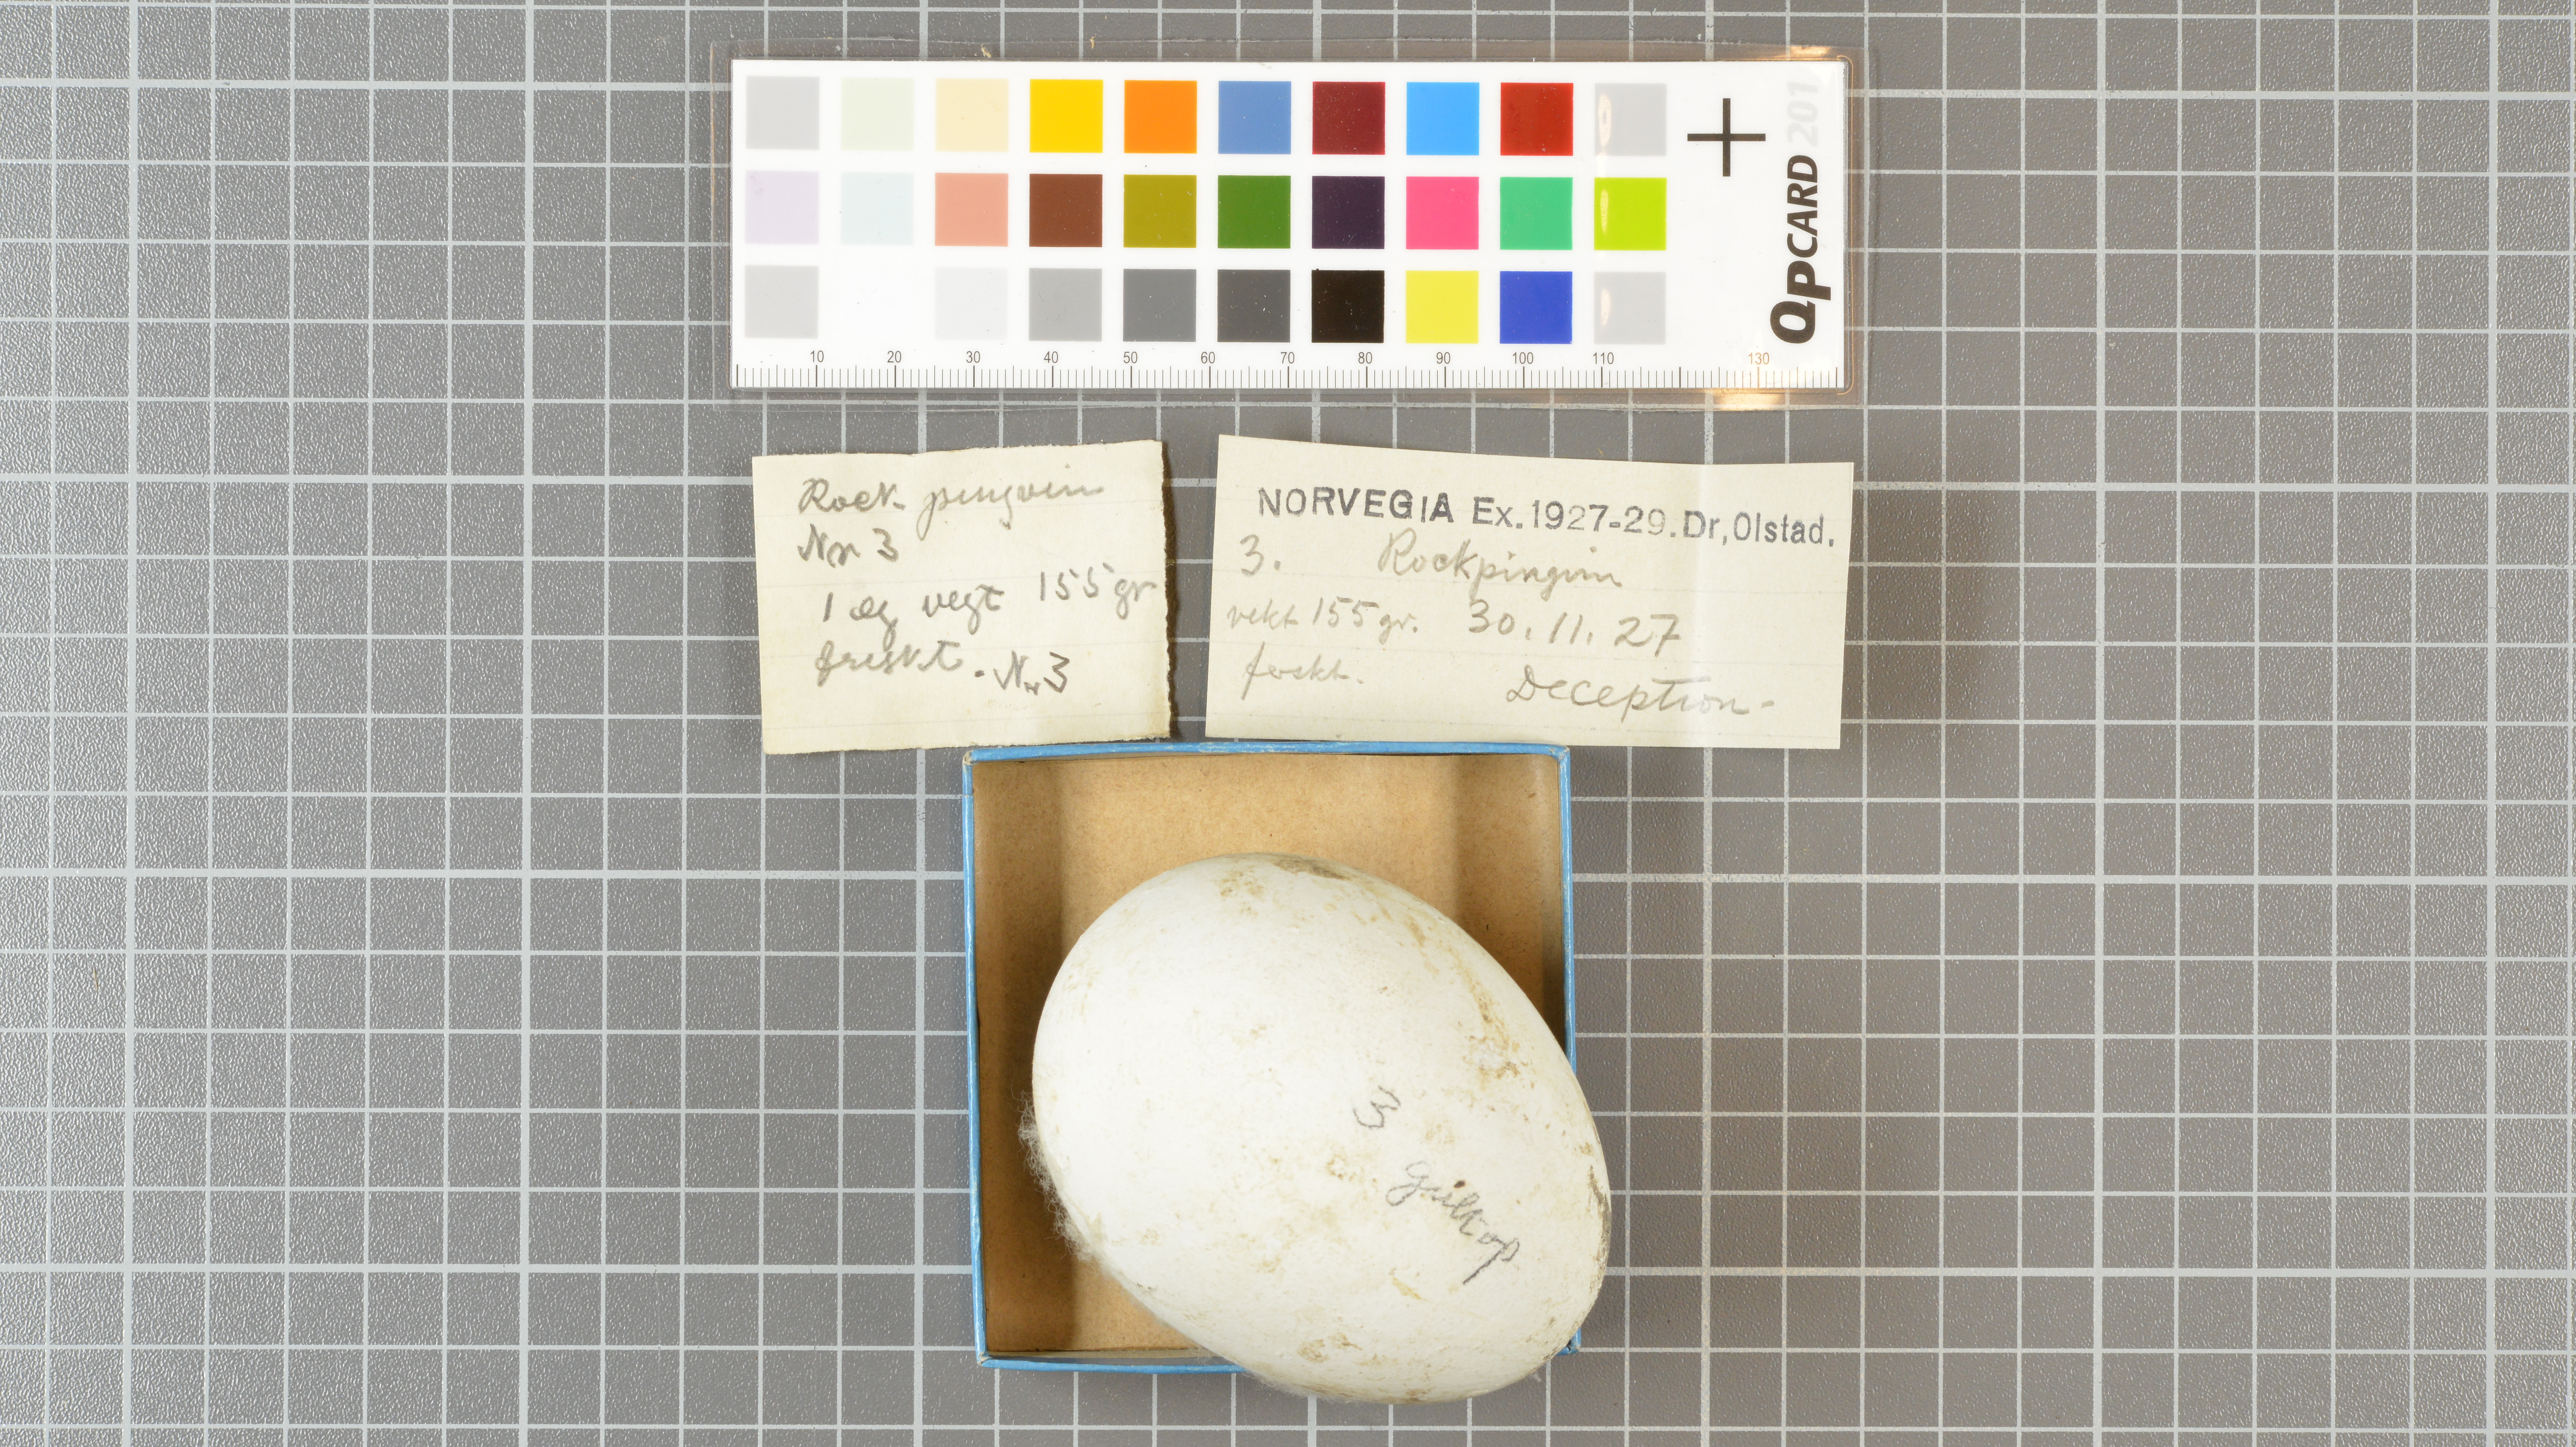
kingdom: Animalia
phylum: Chordata
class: Aves
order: Sphenisciformes
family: Spheniscidae
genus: Eudyptes
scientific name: Eudyptes chrysolophus
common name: Macaroni penguin
